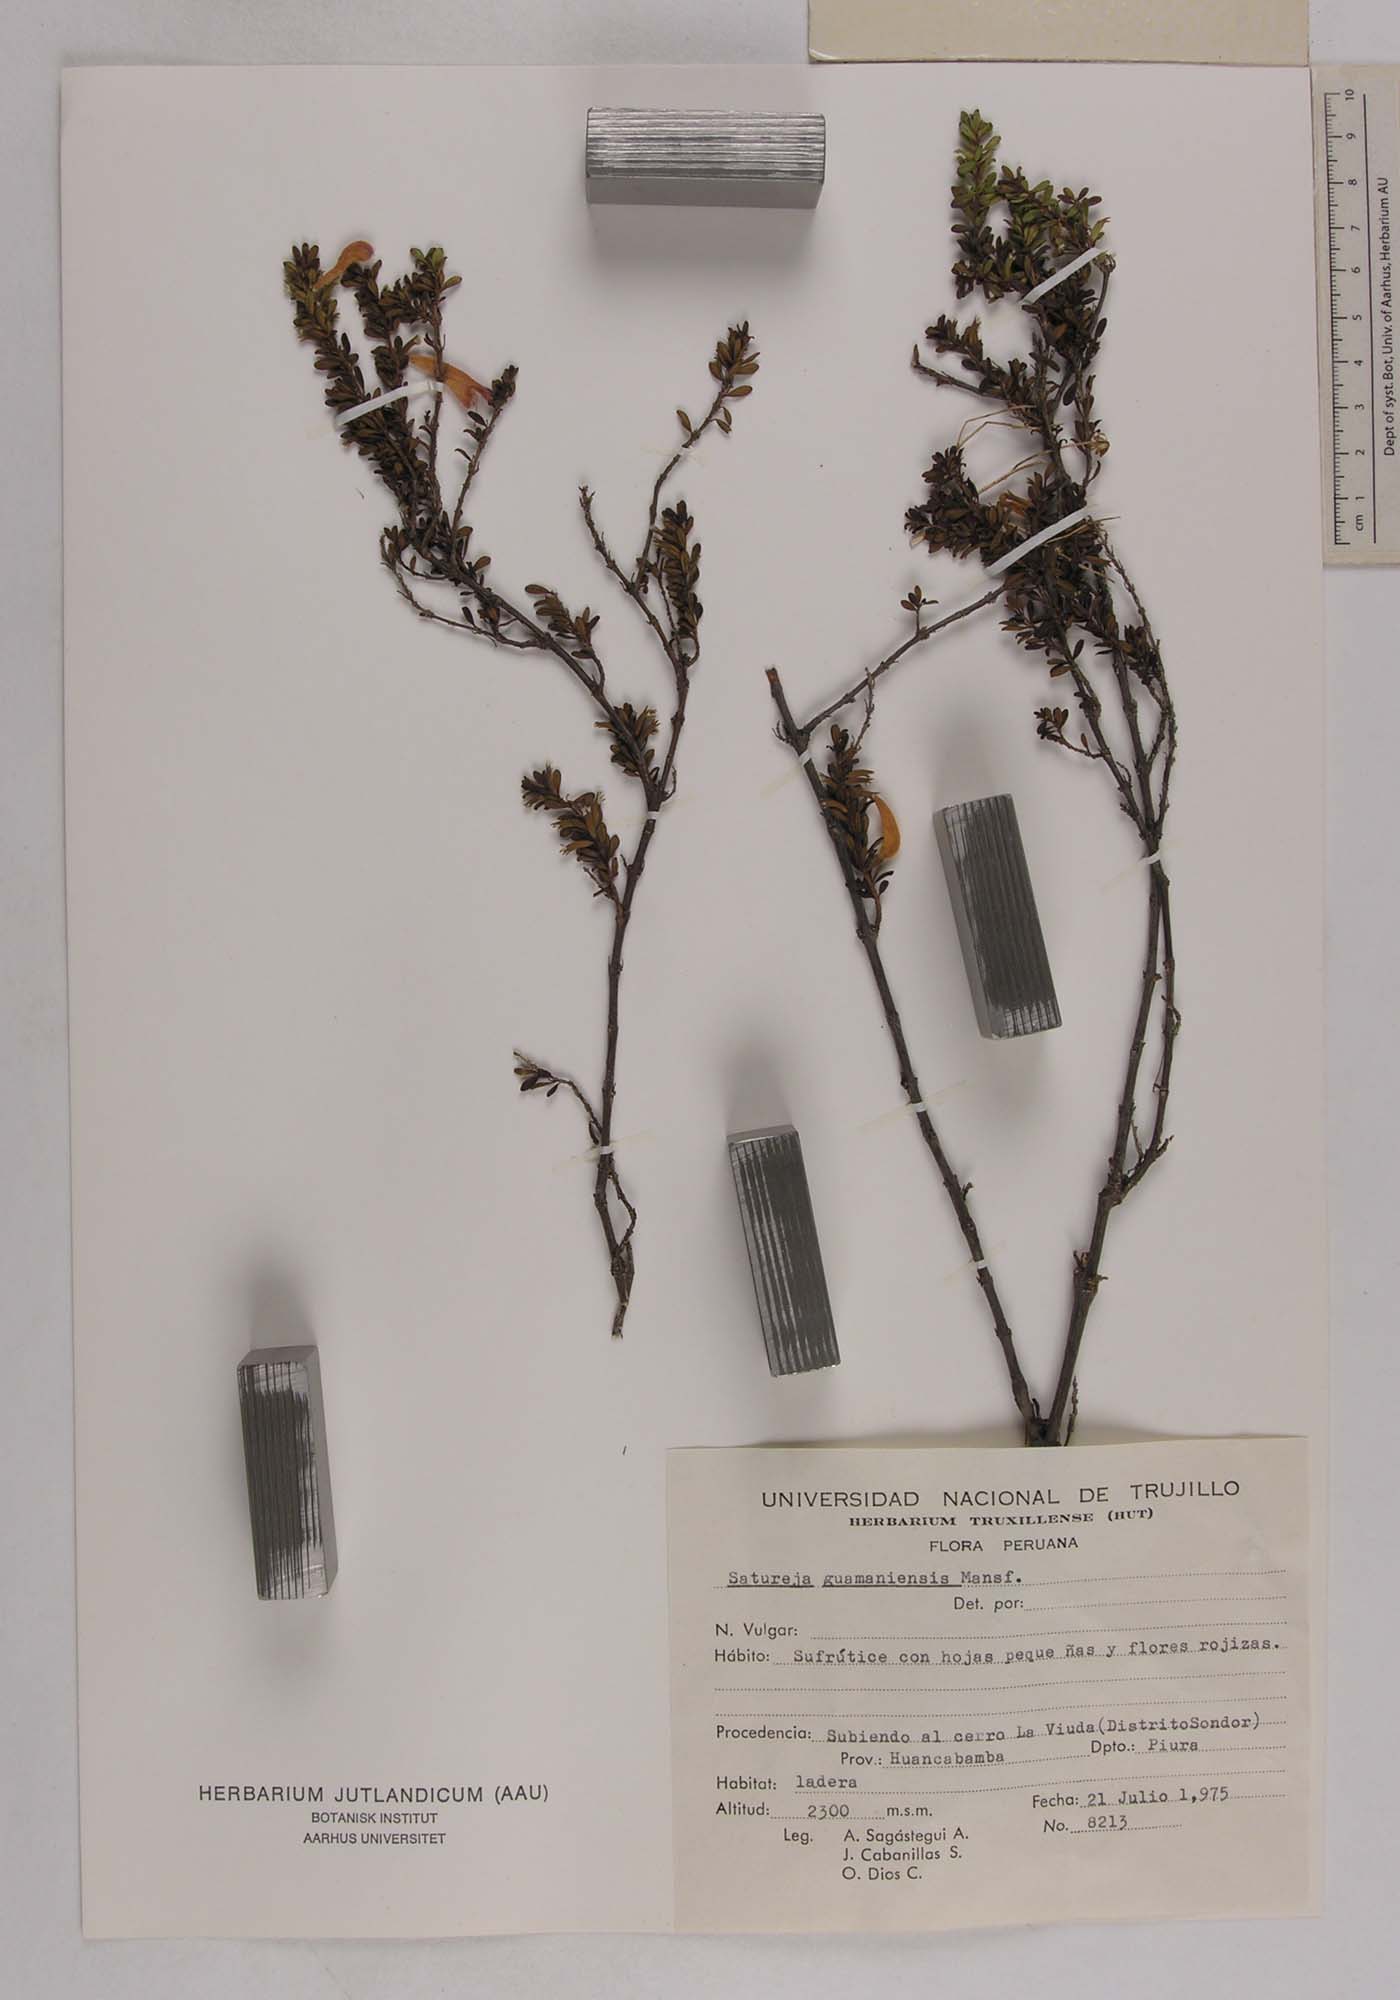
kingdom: Plantae
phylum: Tracheophyta
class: Magnoliopsida
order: Lamiales
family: Lamiaceae
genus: Clinopodium
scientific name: Clinopodium obovatum
